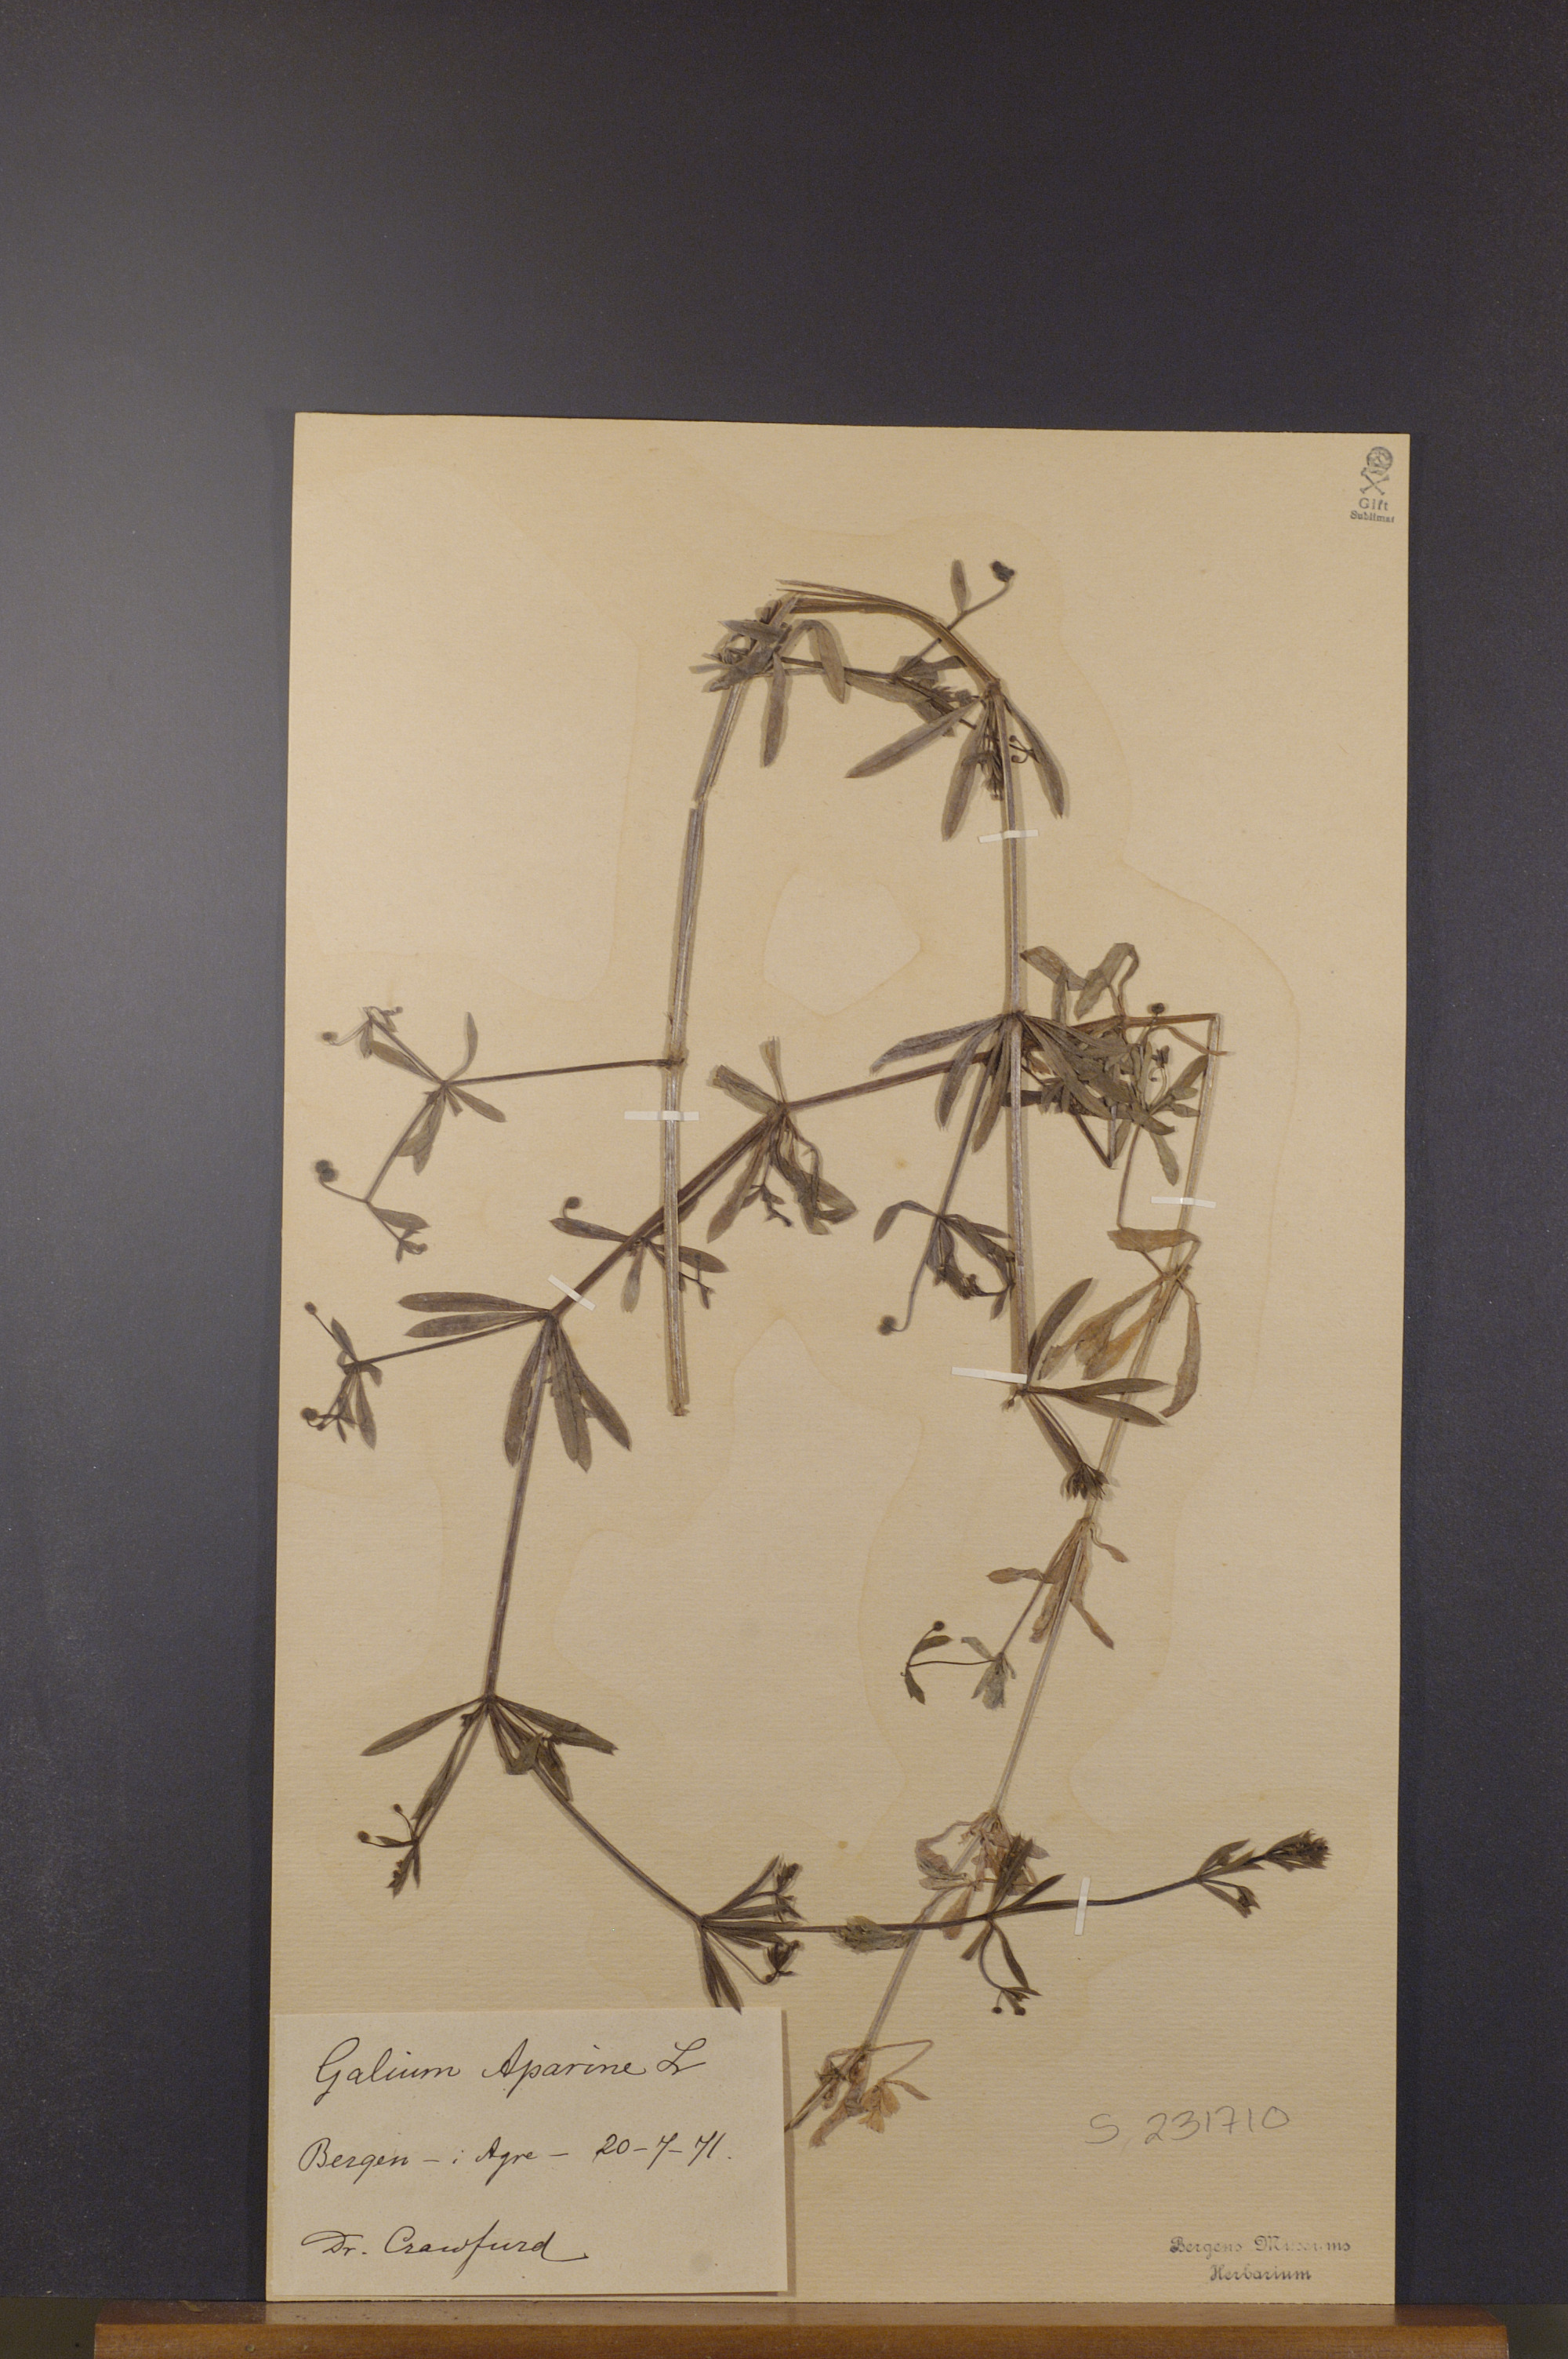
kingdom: Plantae
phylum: Tracheophyta
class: Magnoliopsida
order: Gentianales
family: Rubiaceae
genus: Galium
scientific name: Galium aparine
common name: Cleavers
